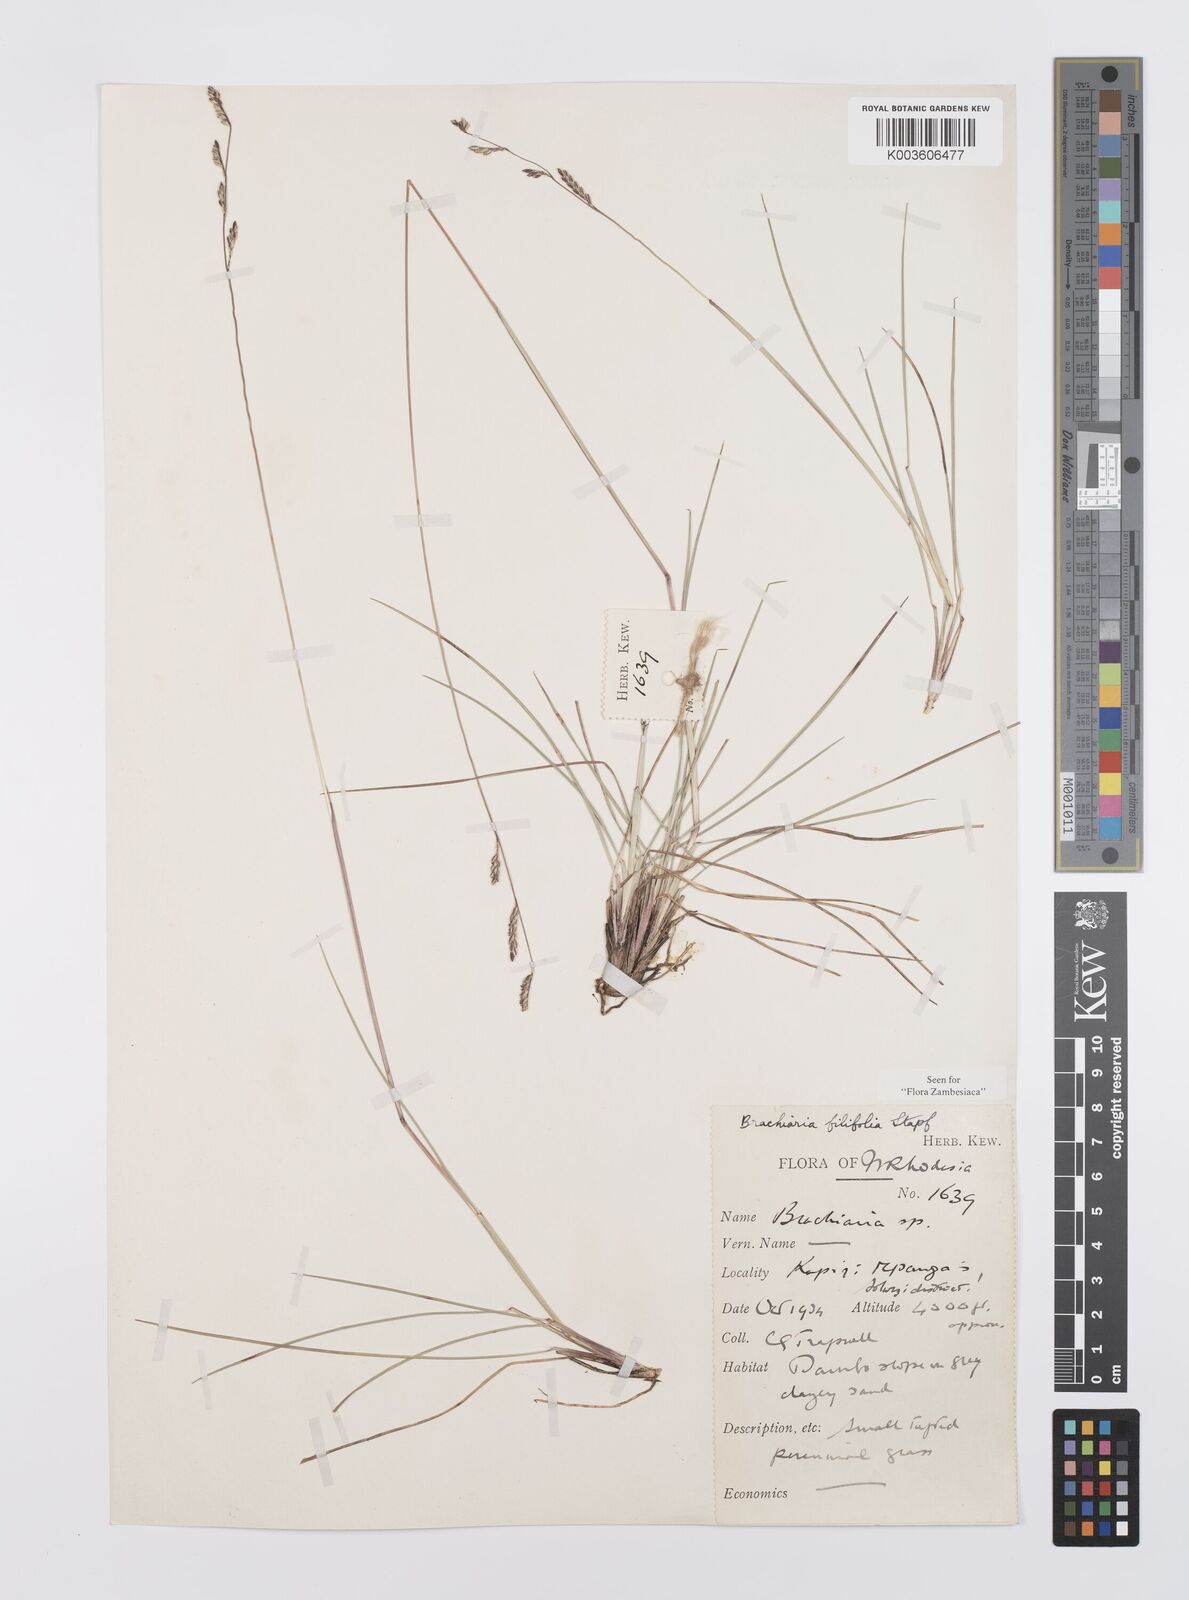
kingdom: Plantae
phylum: Tracheophyta
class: Liliopsida
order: Poales
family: Poaceae
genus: Urochloa
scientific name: Urochloa subulifolia
